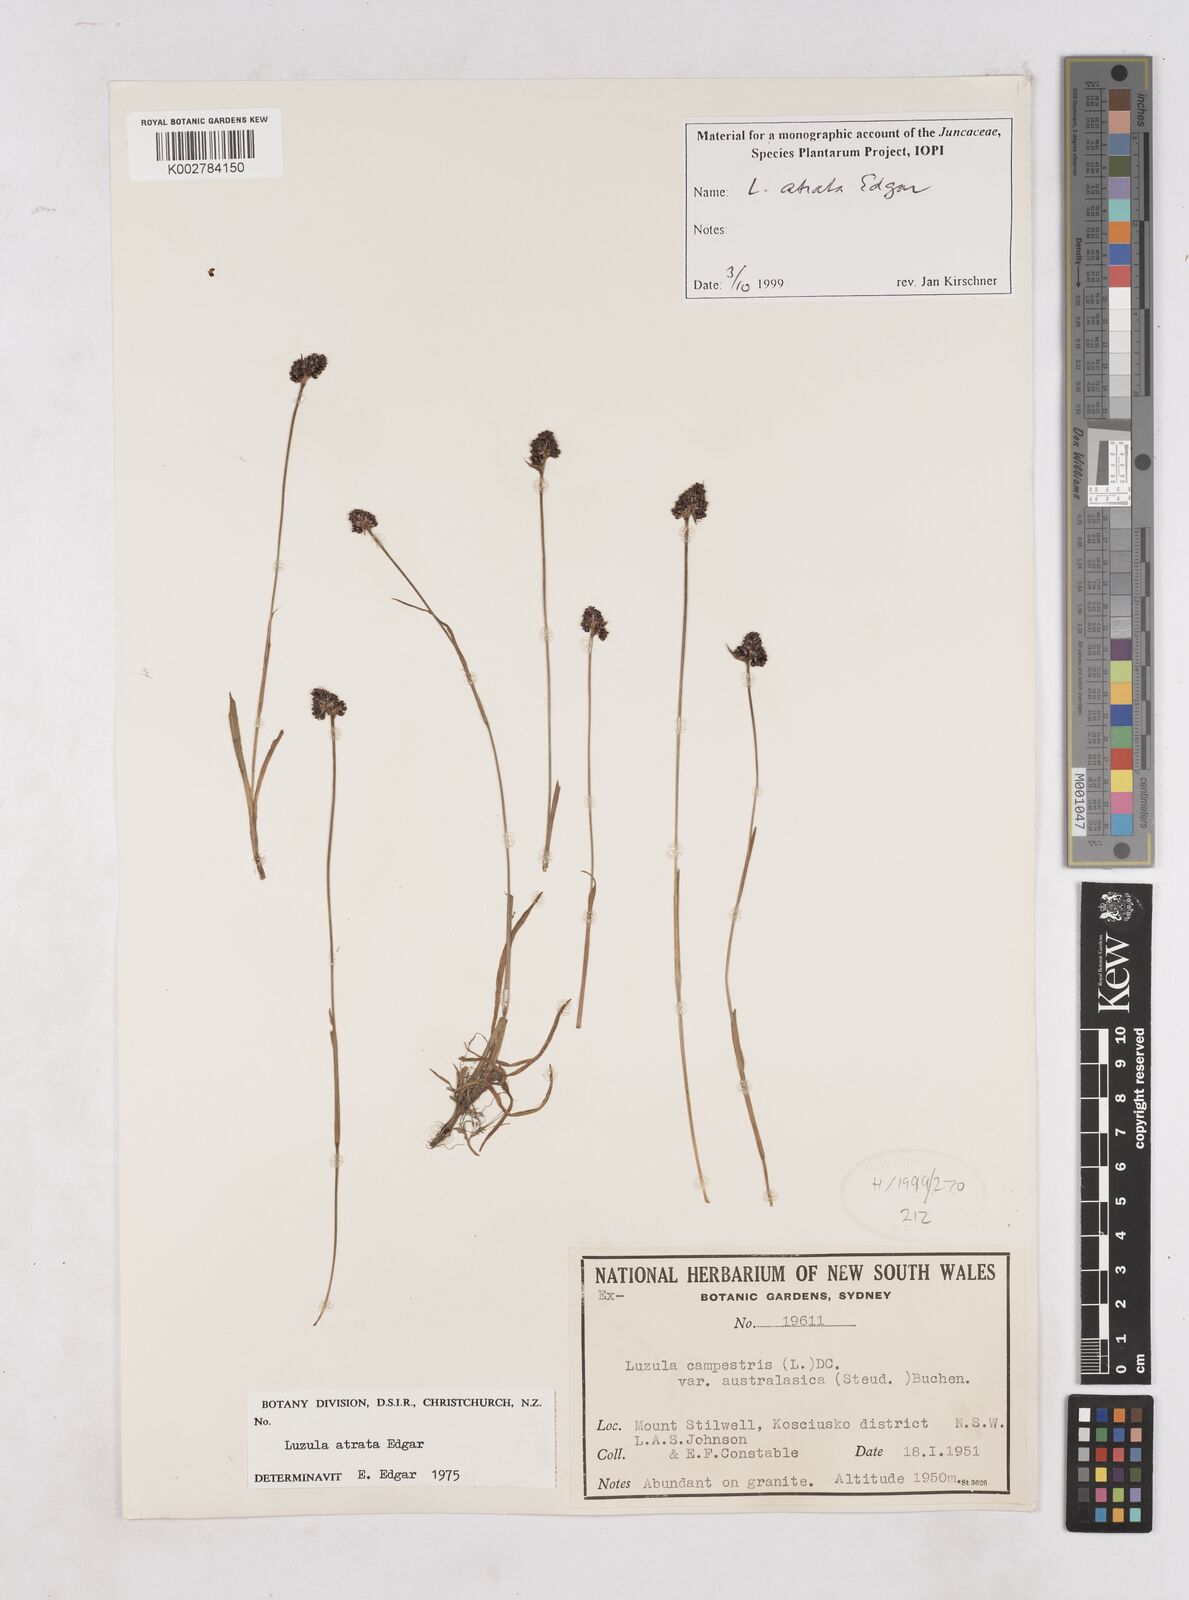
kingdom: Plantae
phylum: Tracheophyta
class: Liliopsida
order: Poales
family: Juncaceae
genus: Luzula
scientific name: Luzula atrata
